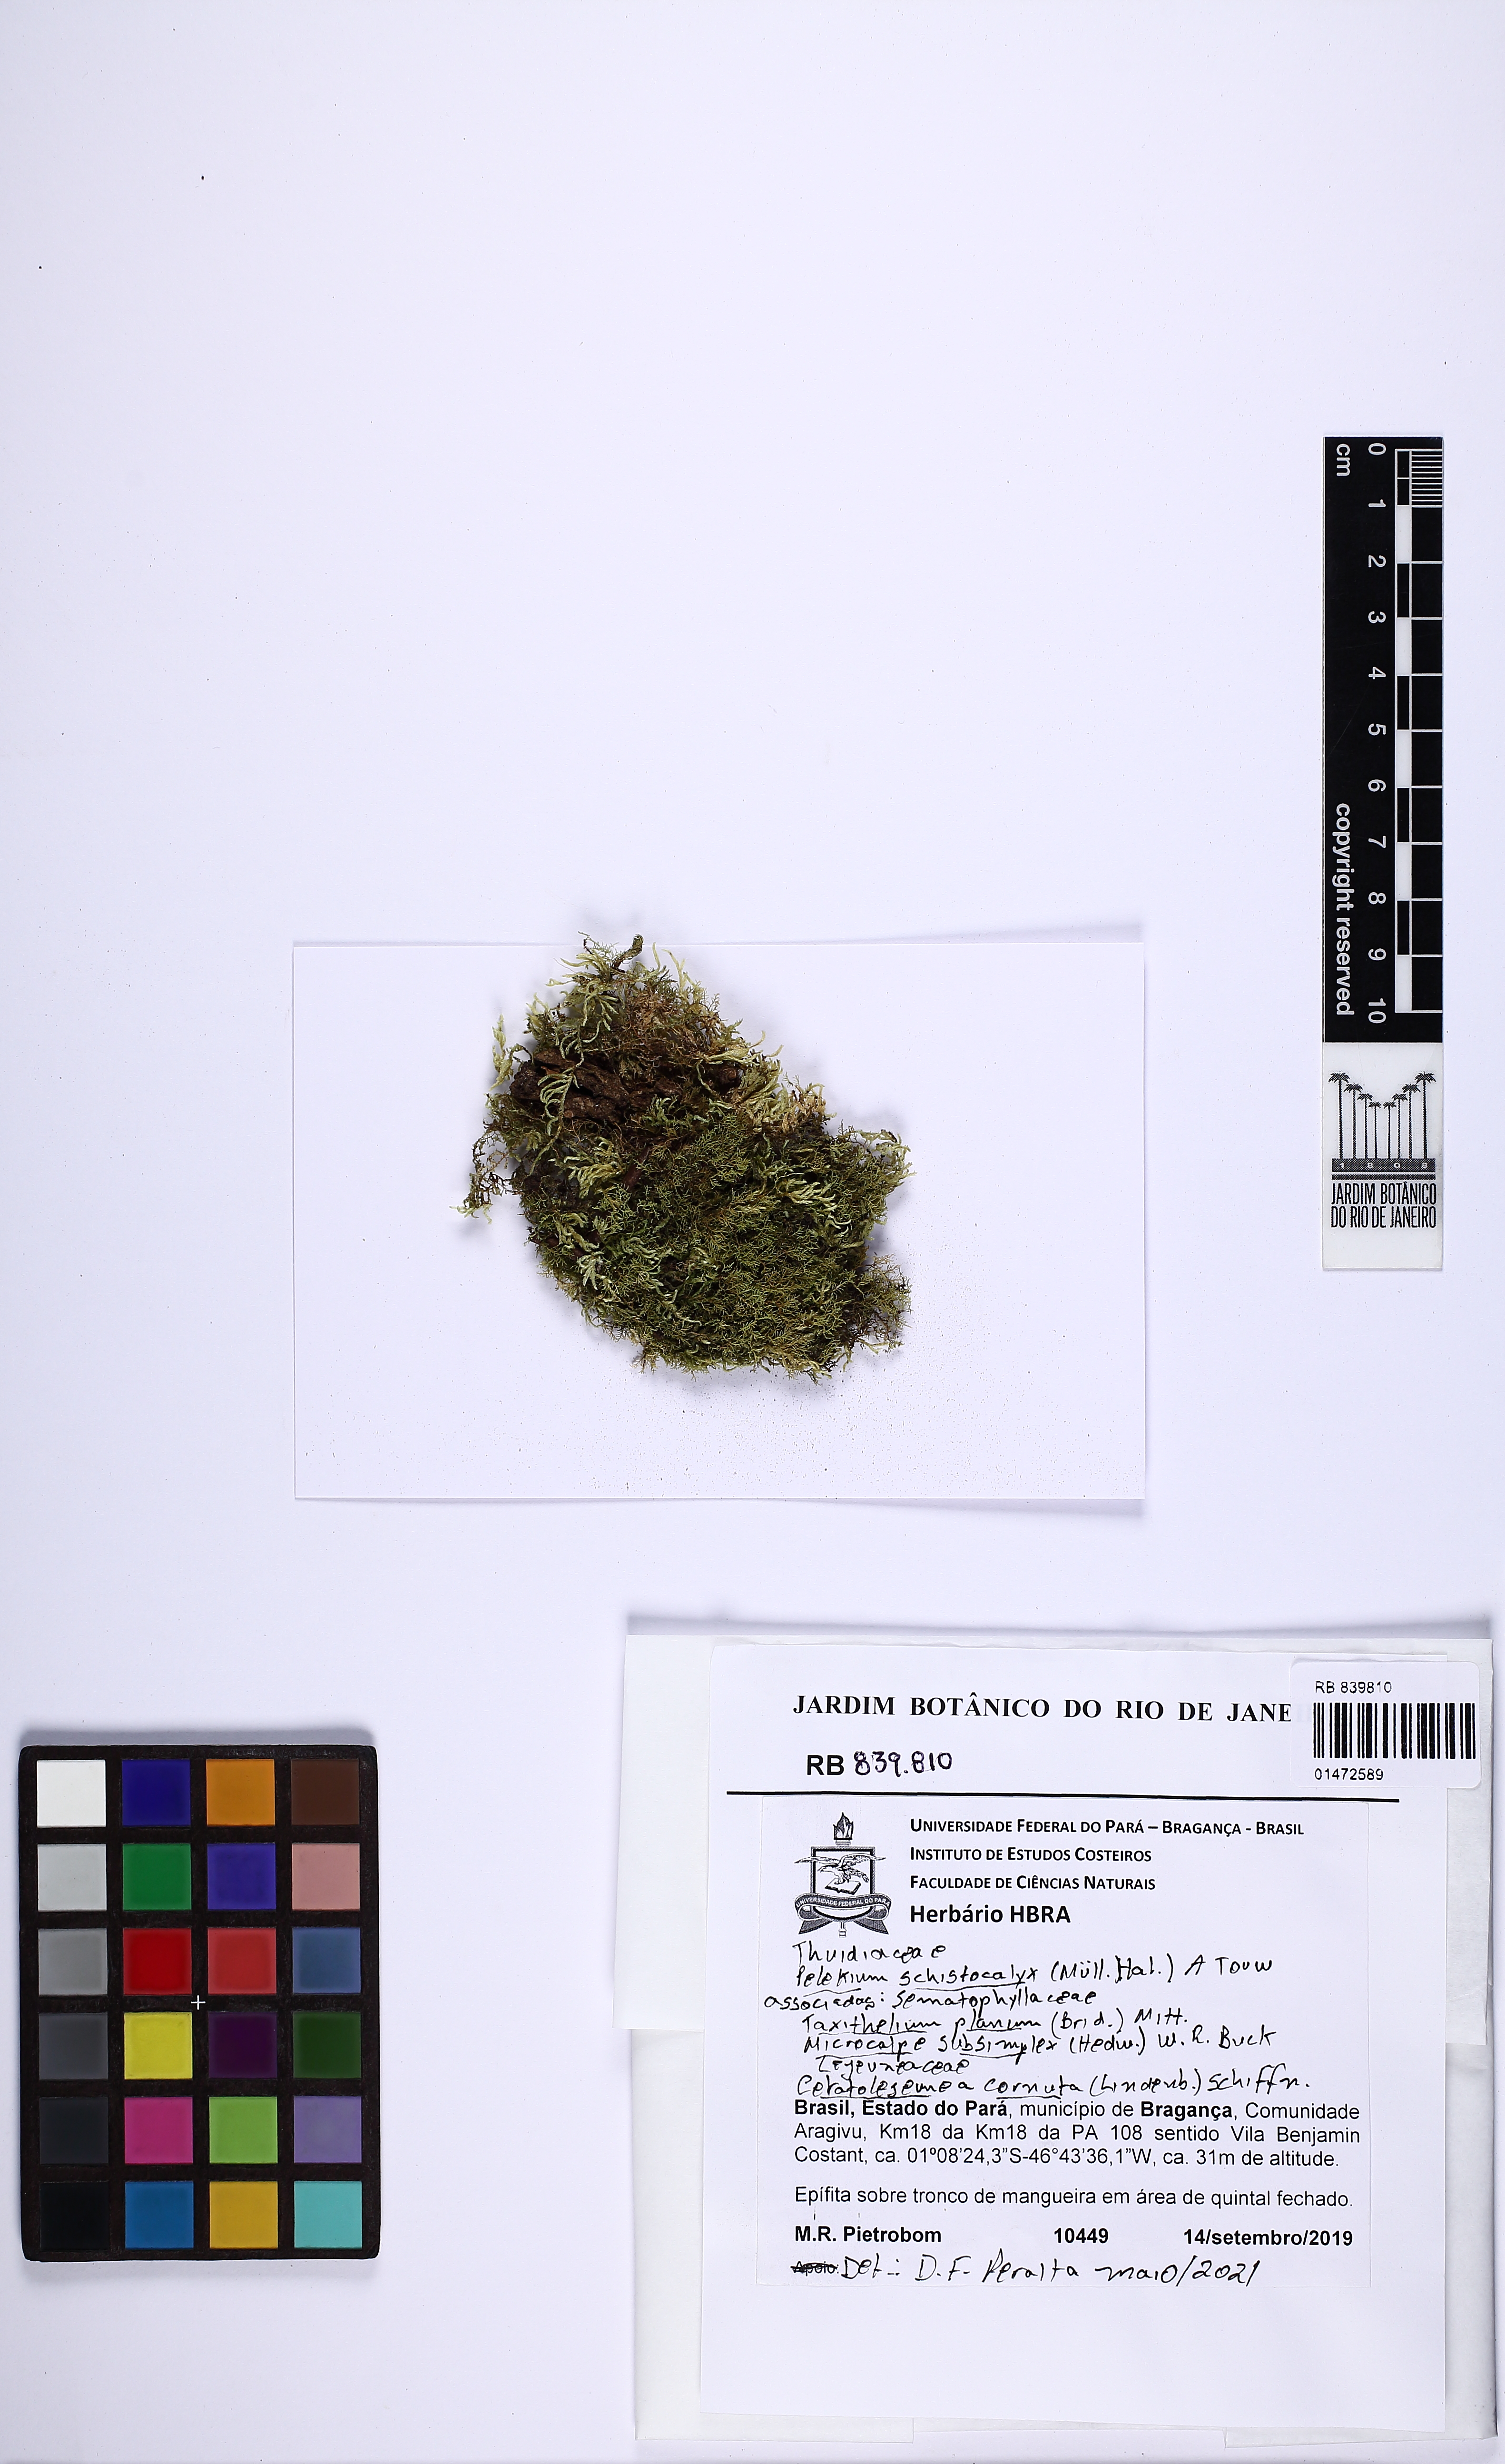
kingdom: Plantae
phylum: Bryophyta
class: Bryopsida
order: Hypnales
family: Thuidiaceae
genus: Pelekium
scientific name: Pelekium schistocalyx
